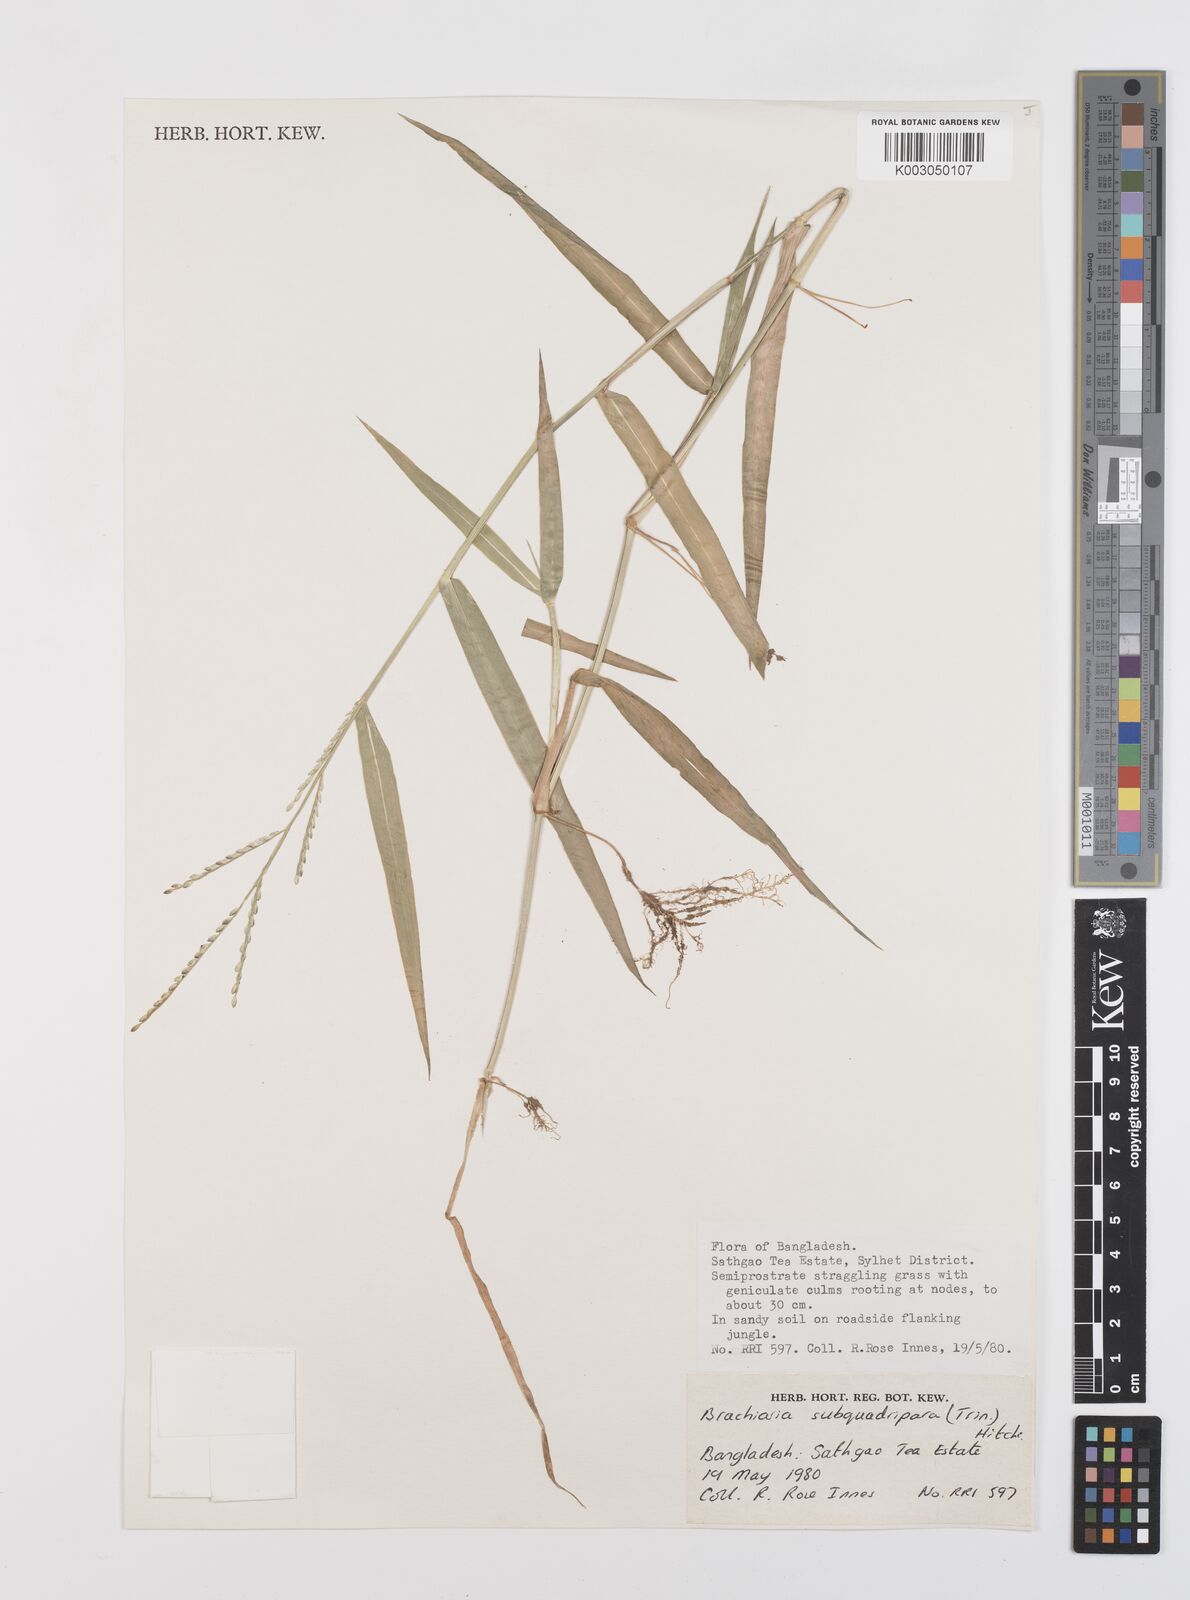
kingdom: Plantae
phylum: Tracheophyta
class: Liliopsida
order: Poales
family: Poaceae
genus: Urochloa
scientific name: Urochloa subquadripara
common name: Armgrass millet
